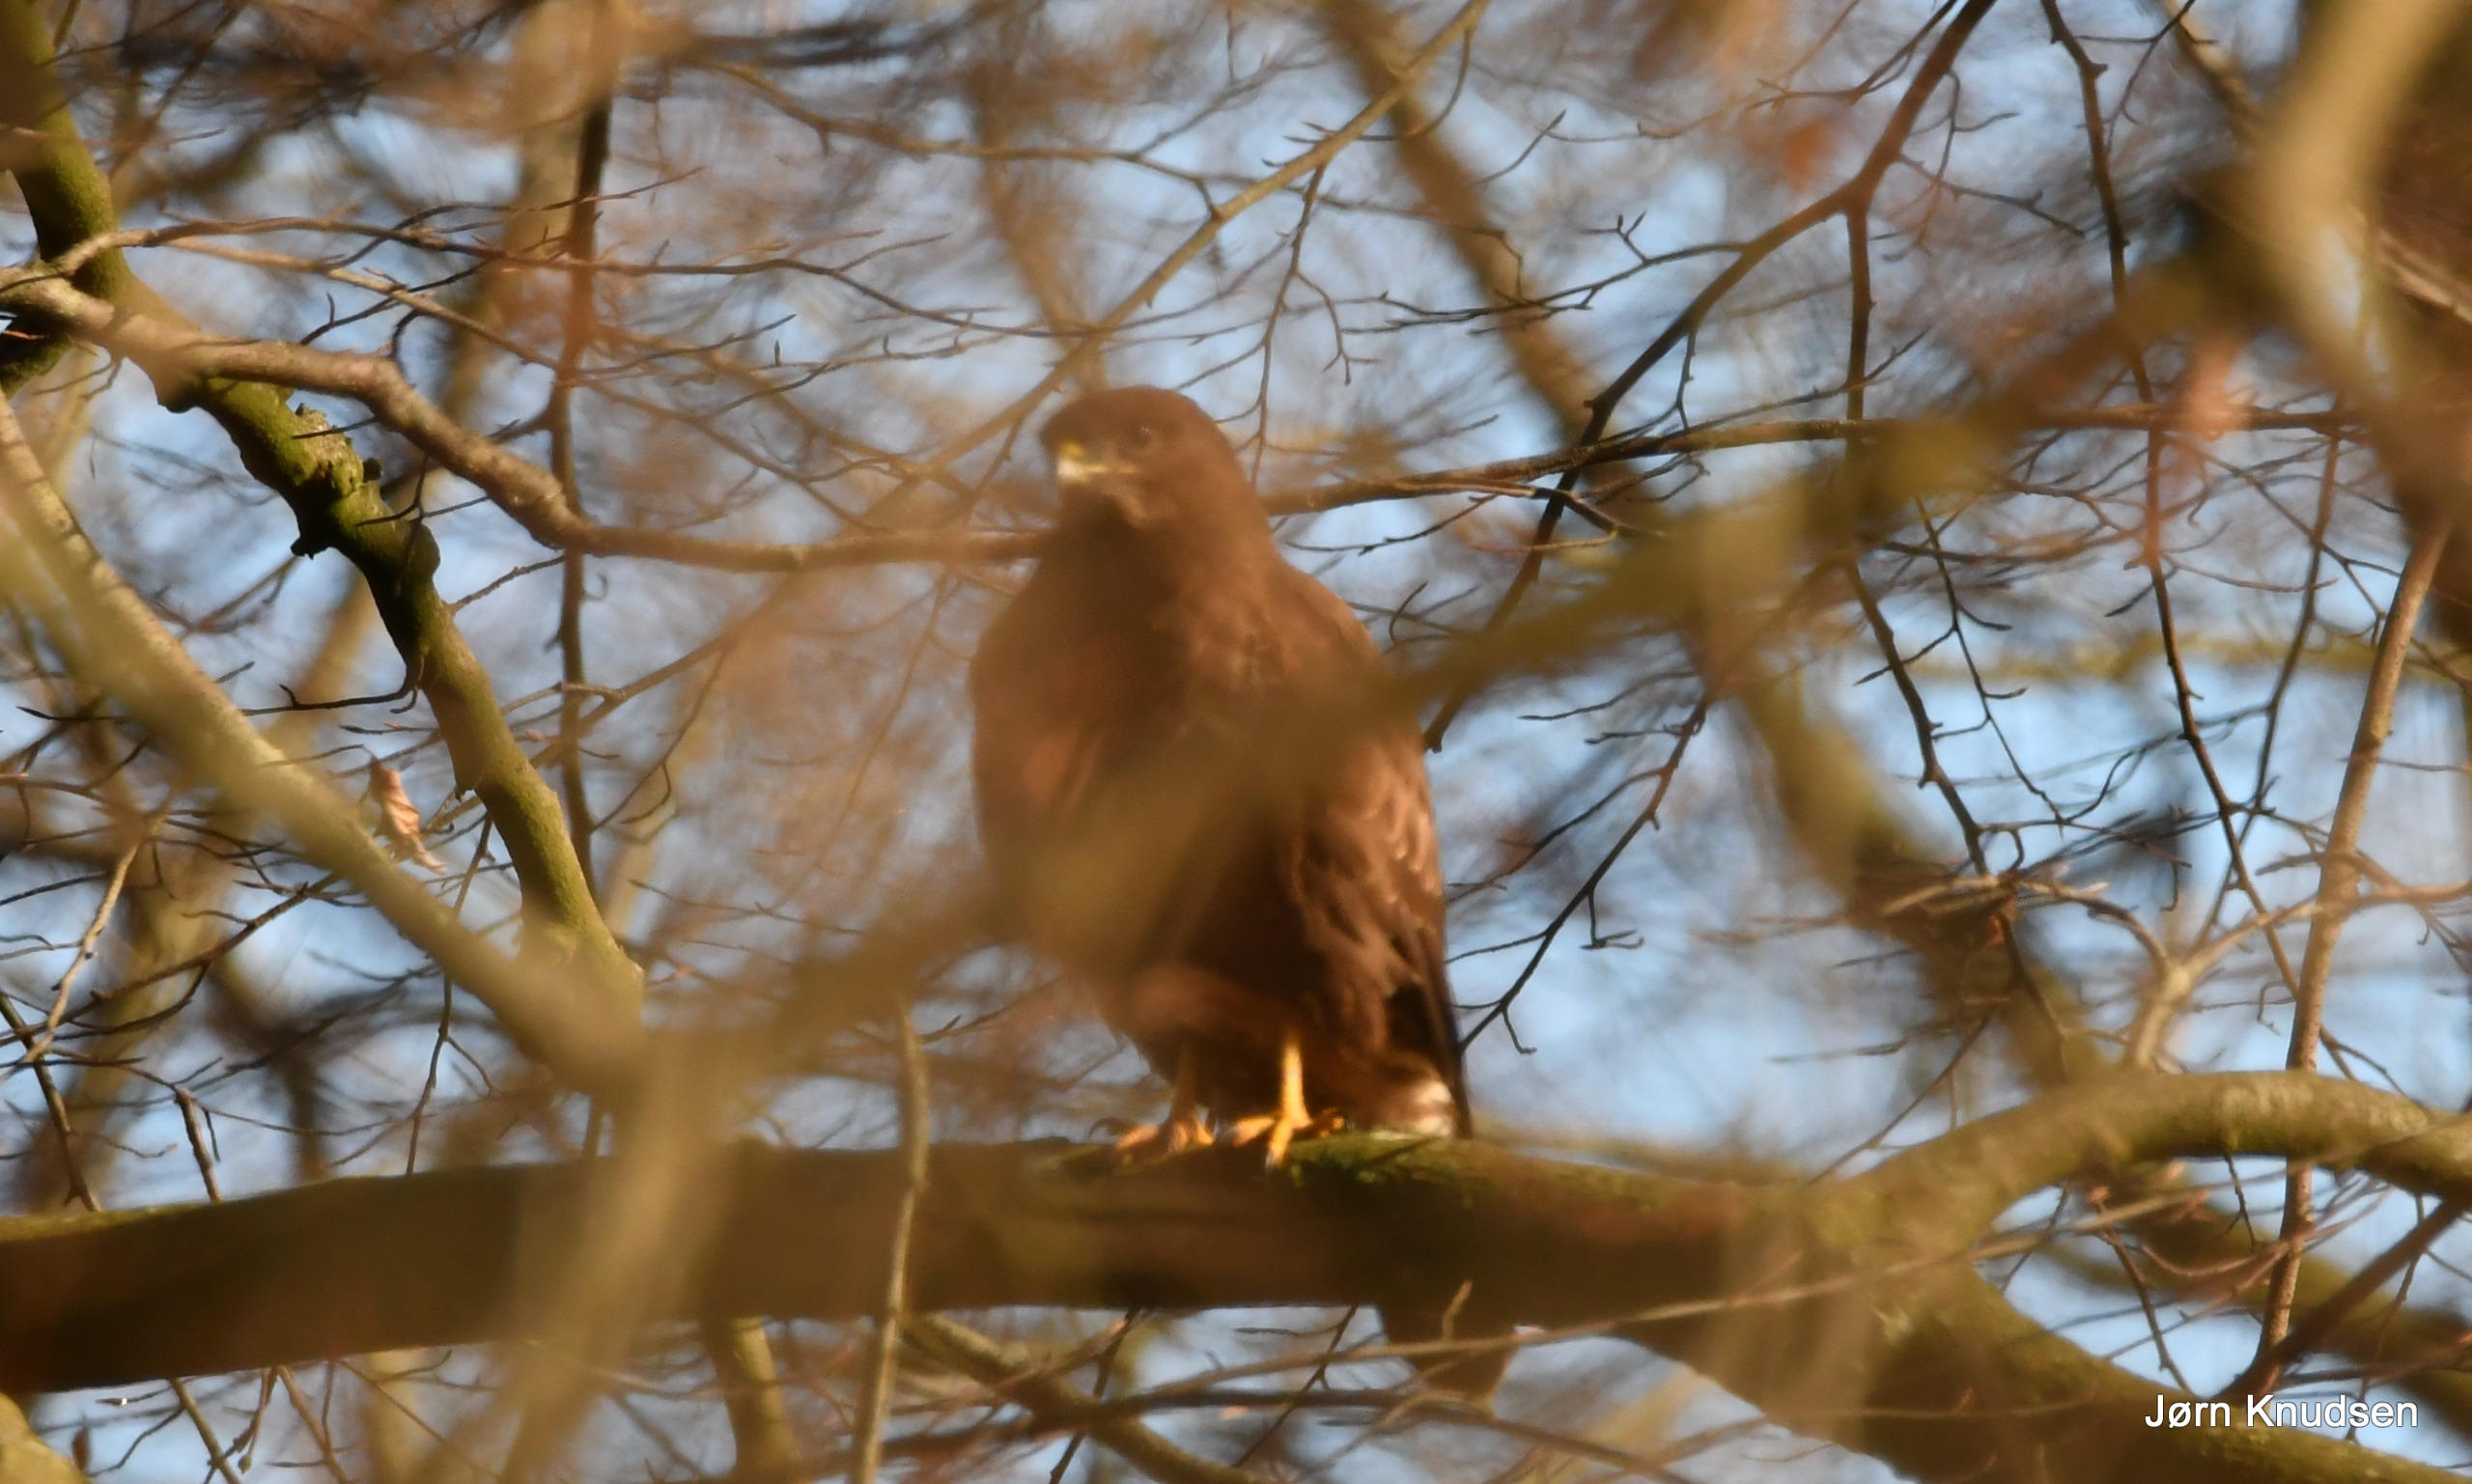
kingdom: Animalia
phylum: Chordata
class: Aves
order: Accipitriformes
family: Accipitridae
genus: Buteo
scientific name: Buteo buteo
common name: Musvåge
